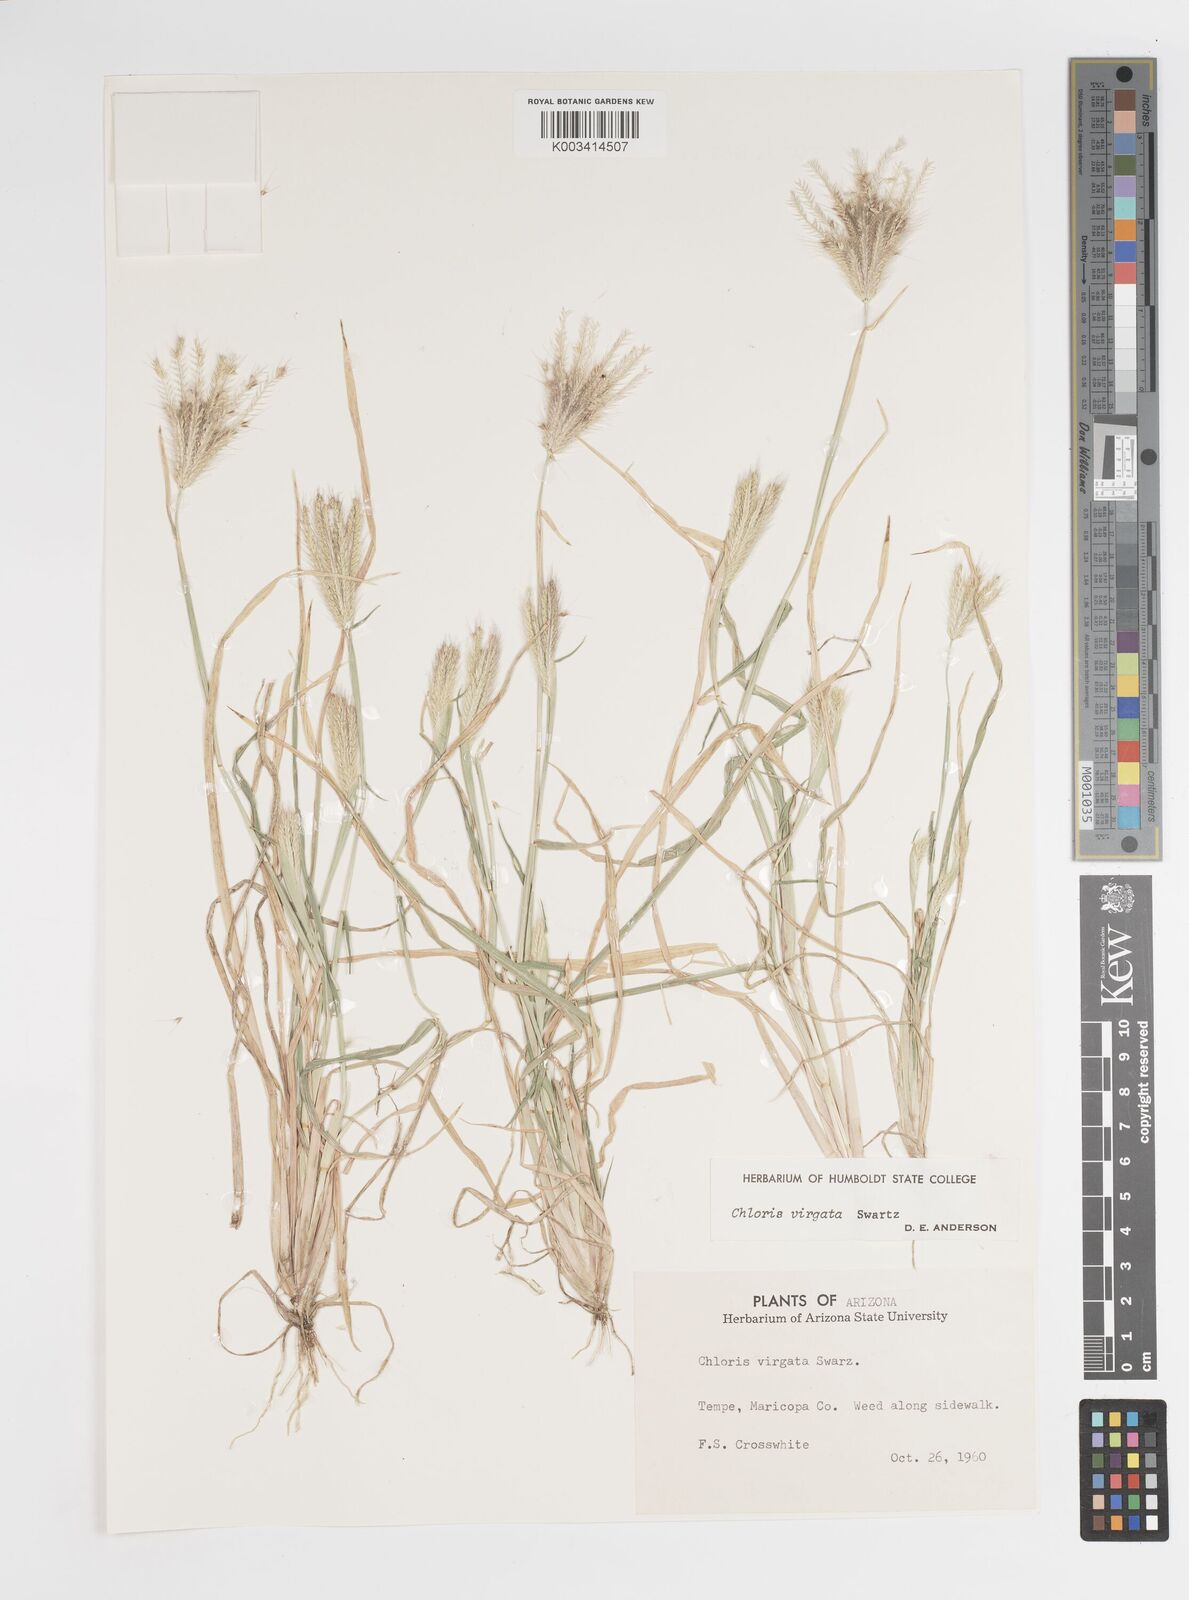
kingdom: Plantae
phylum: Tracheophyta
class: Liliopsida
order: Poales
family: Poaceae
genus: Chloris
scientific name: Chloris virgata
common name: Feathery rhodes-grass
